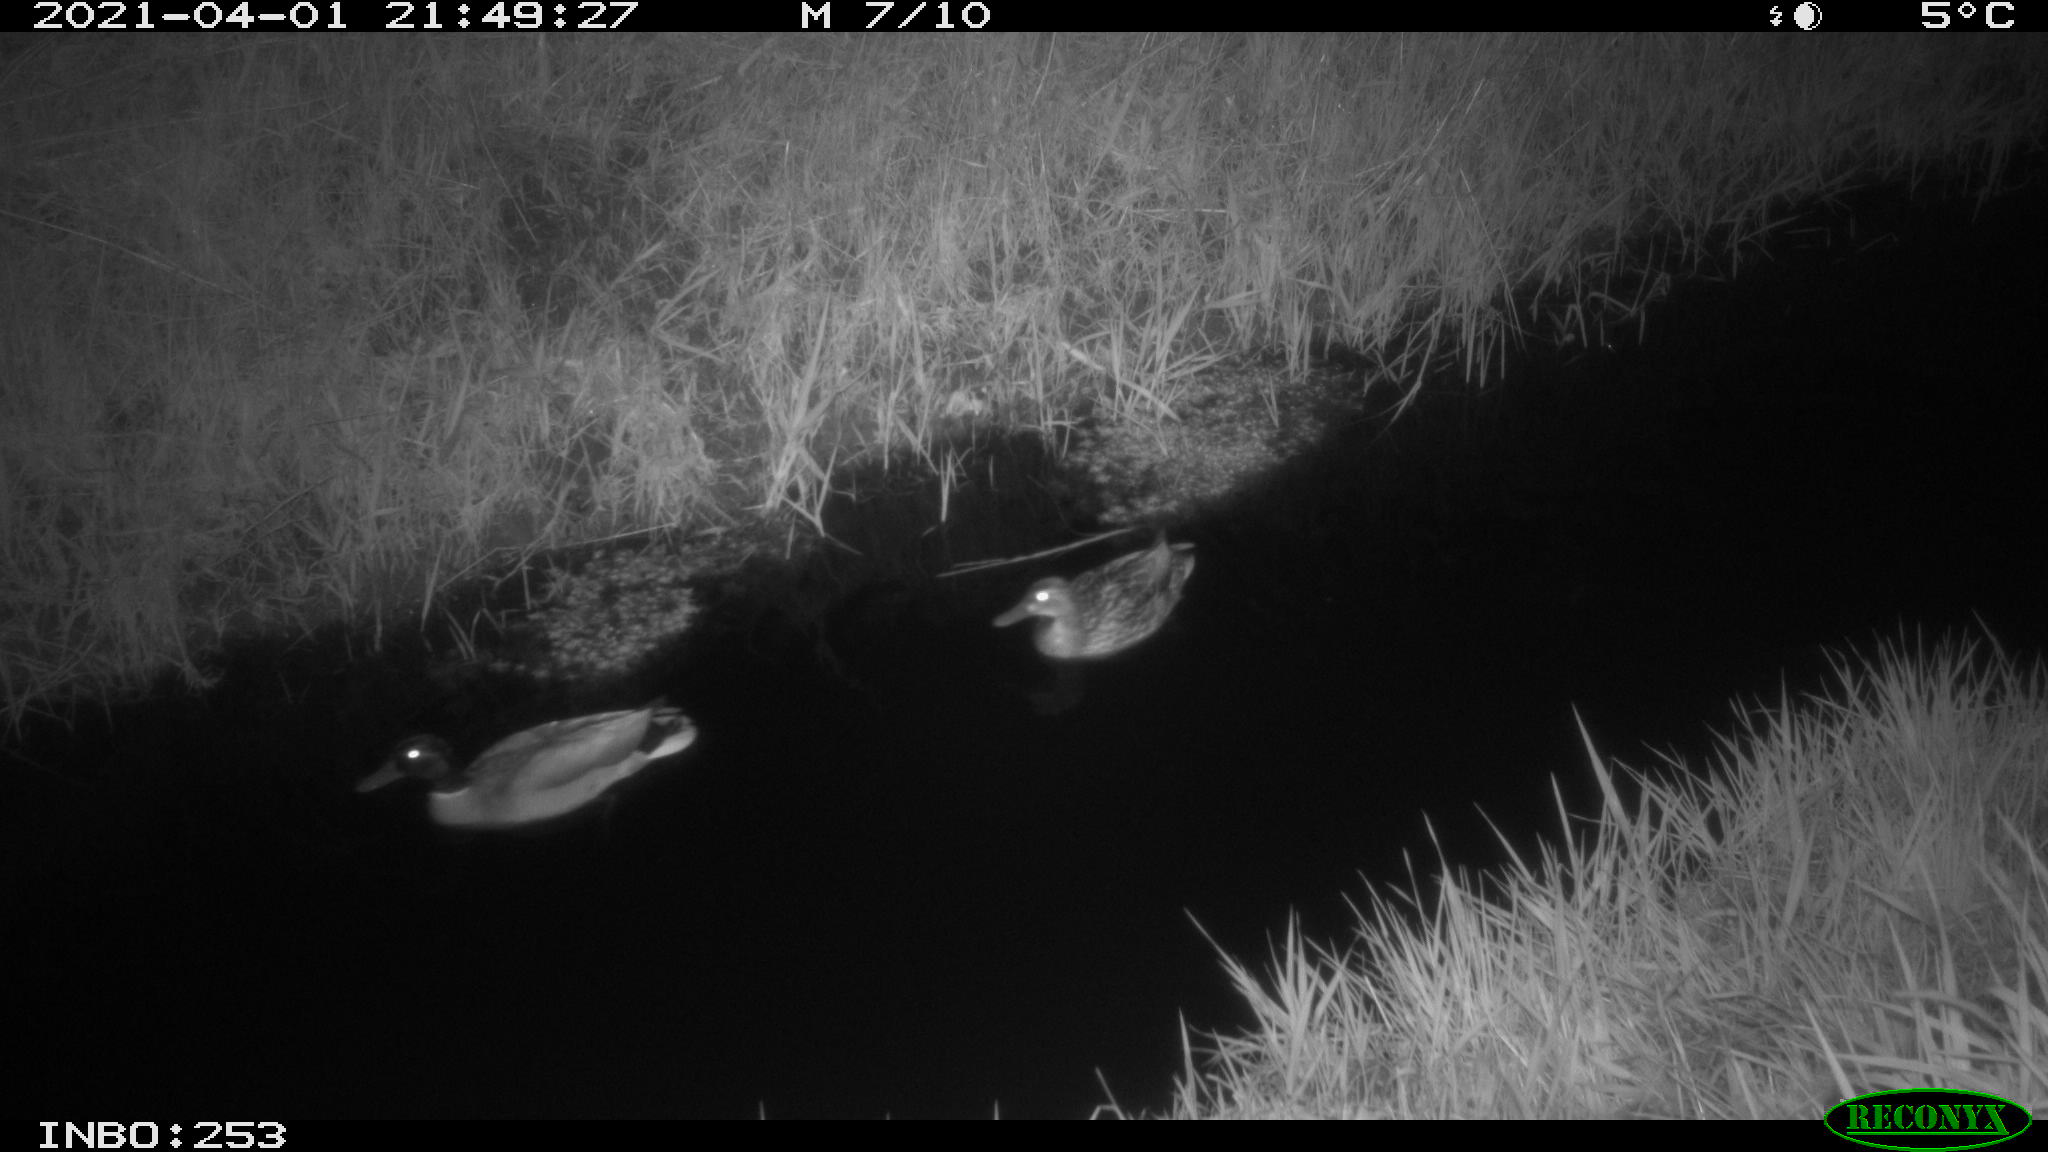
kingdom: Animalia
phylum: Chordata
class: Aves
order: Anseriformes
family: Anatidae
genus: Anas
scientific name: Anas platyrhynchos
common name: Mallard
